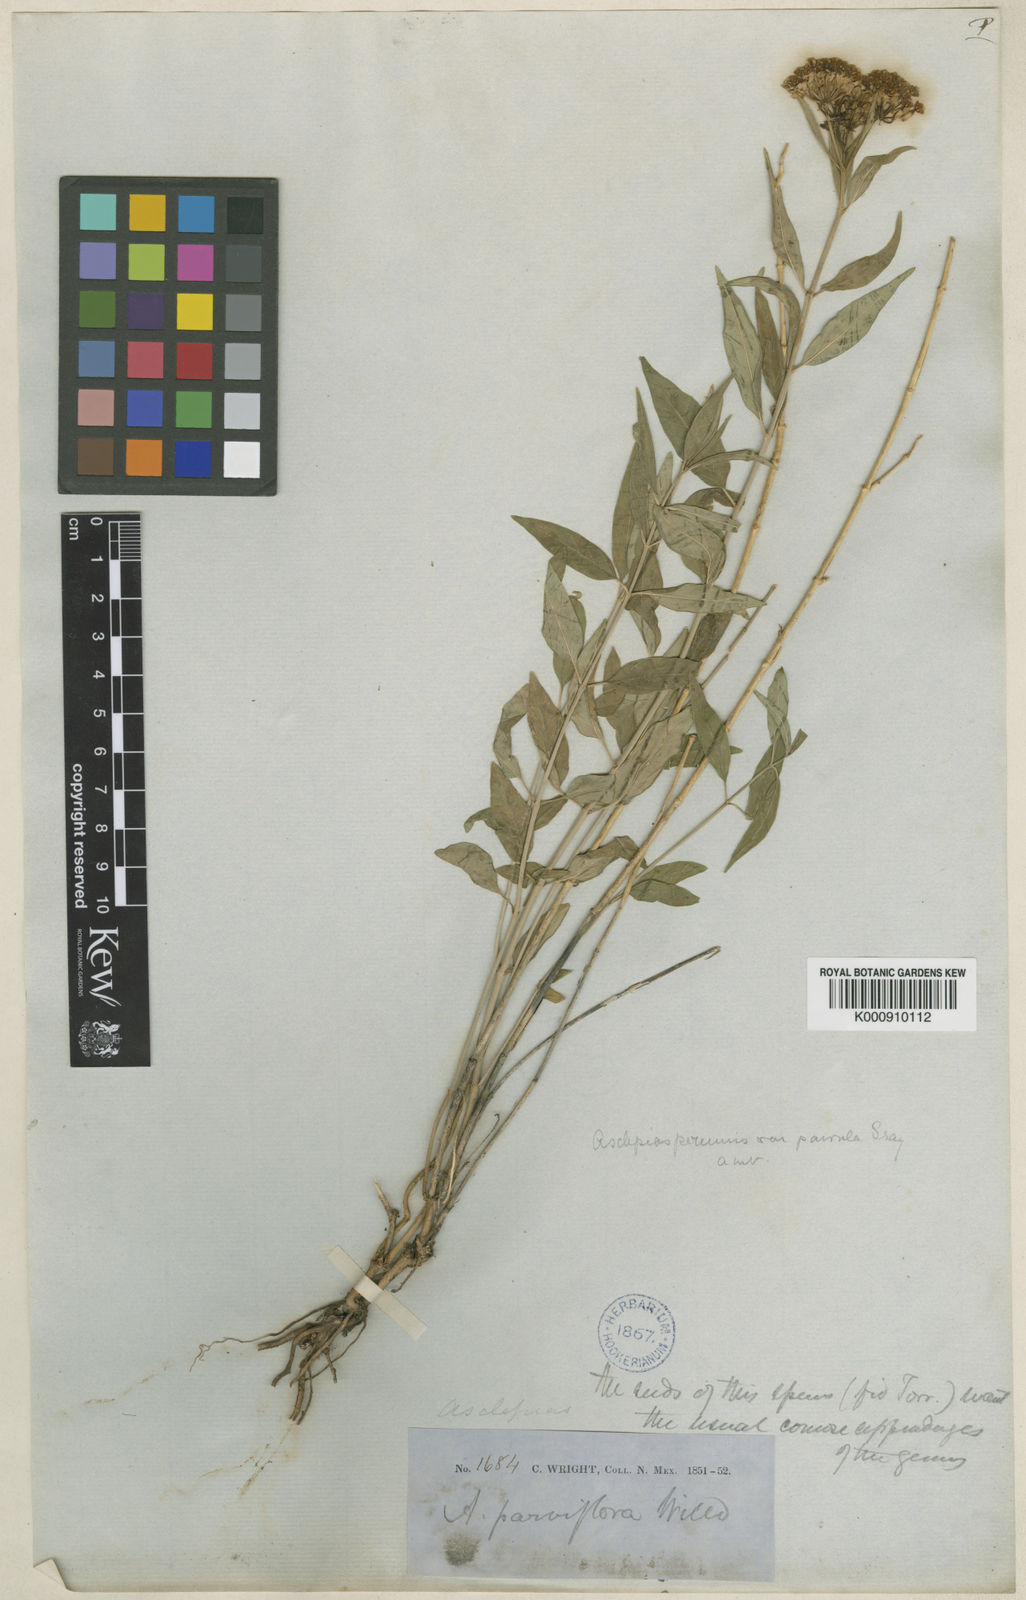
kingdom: Plantae
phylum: Tracheophyta
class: Magnoliopsida
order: Gentianales
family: Apocynaceae
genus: Asclepias
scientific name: Asclepias texana
